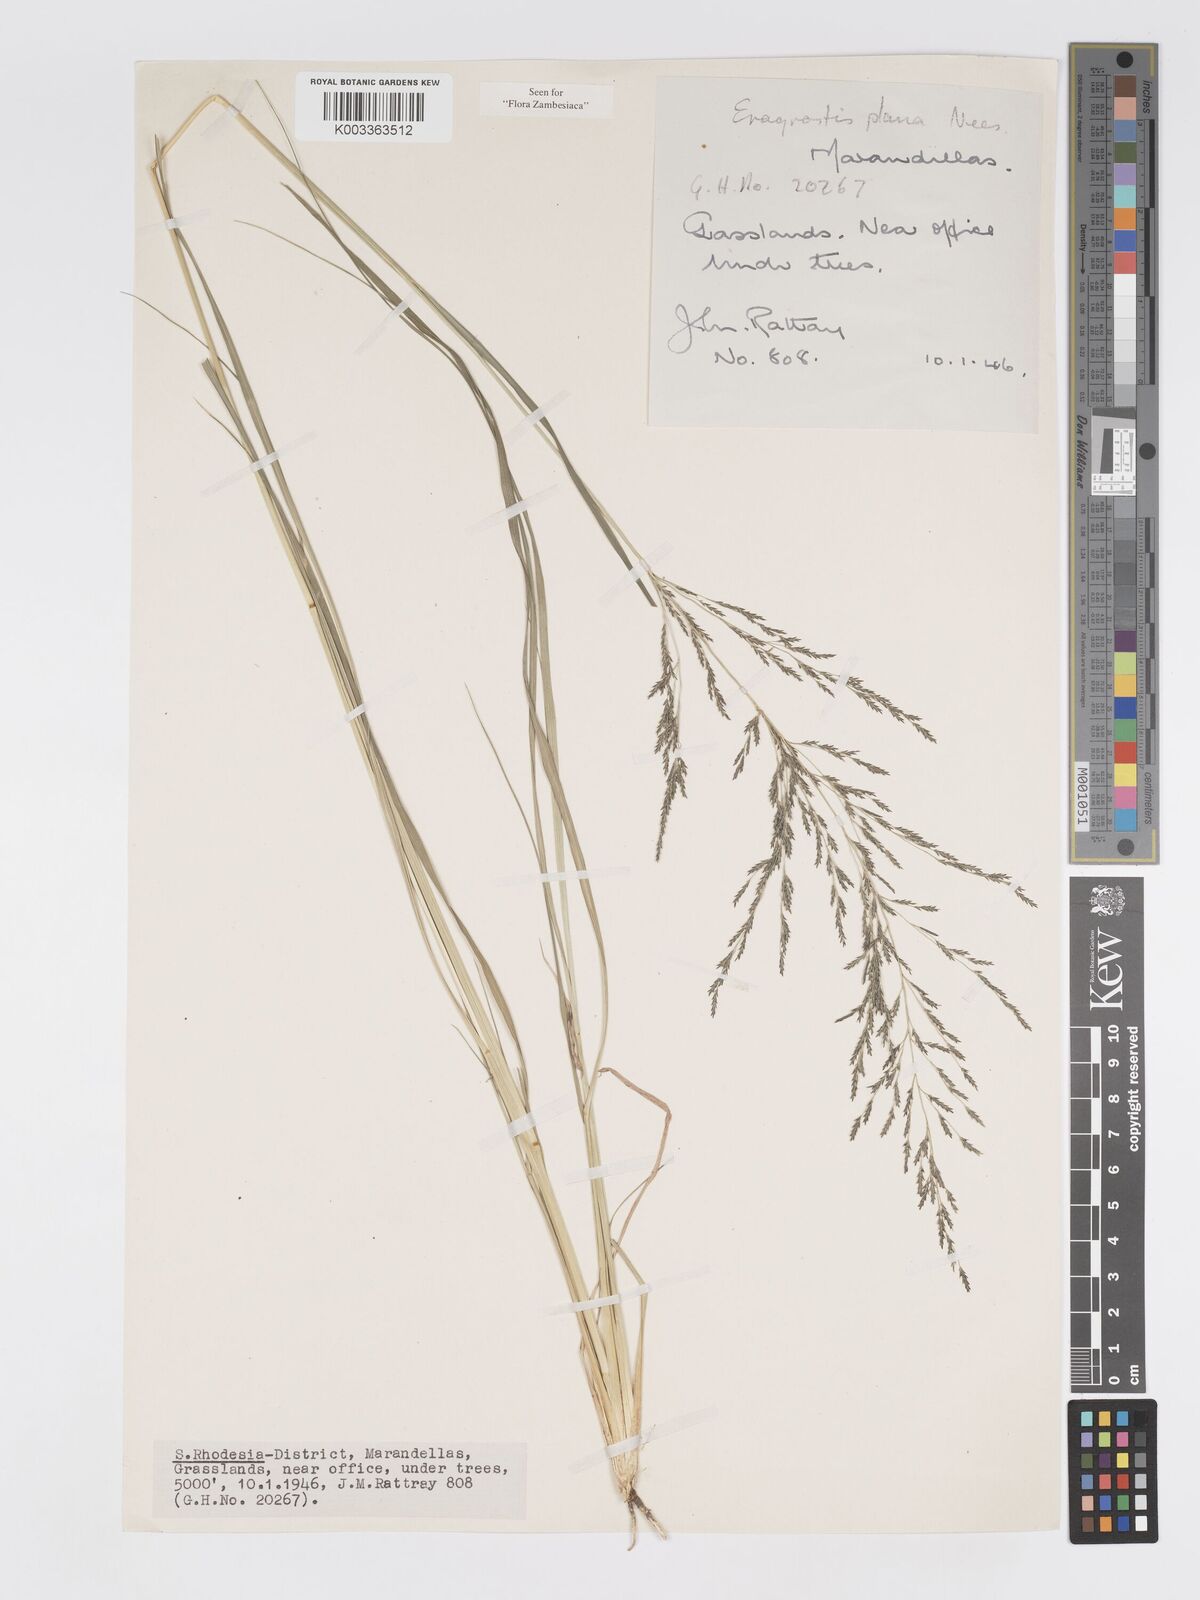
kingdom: Plantae
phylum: Tracheophyta
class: Liliopsida
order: Poales
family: Poaceae
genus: Eragrostis
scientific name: Eragrostis plana
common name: South african lovegrass
